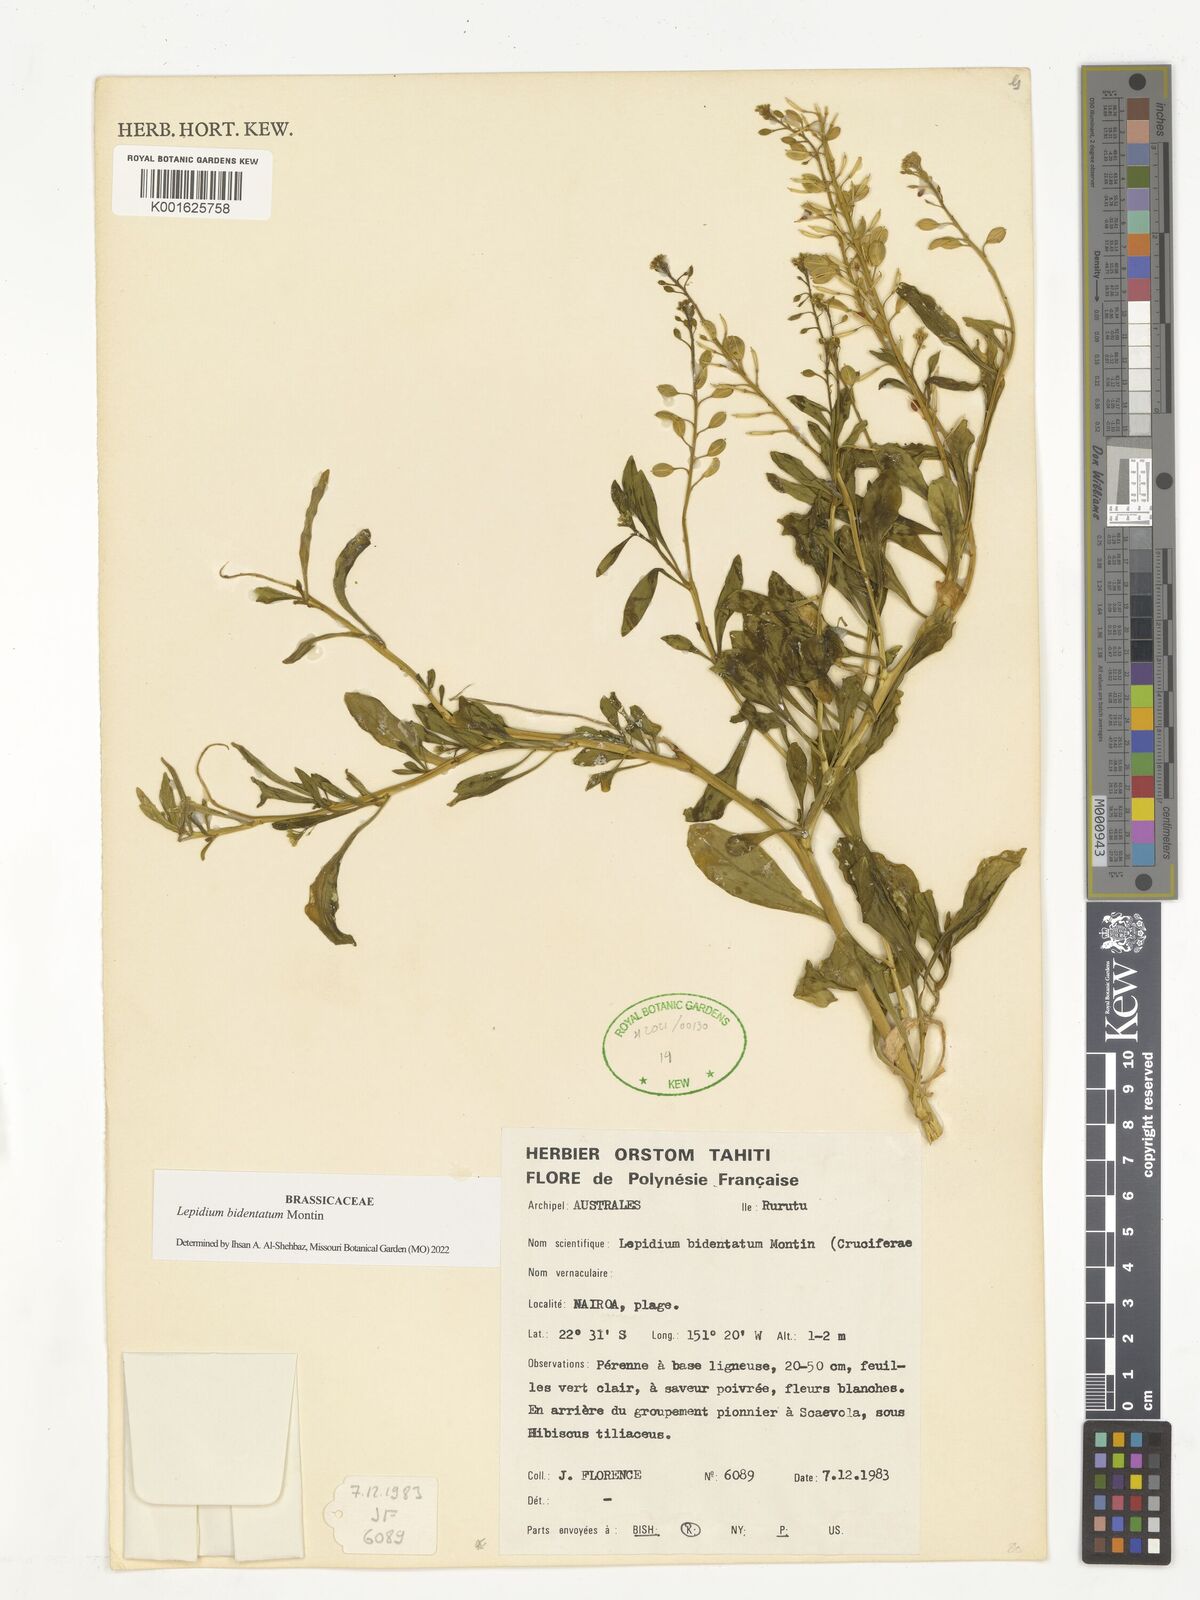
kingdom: Plantae
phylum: Tracheophyta
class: Magnoliopsida
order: Brassicales
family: Brassicaceae
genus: Lepidium
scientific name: Lepidium bidentatum
